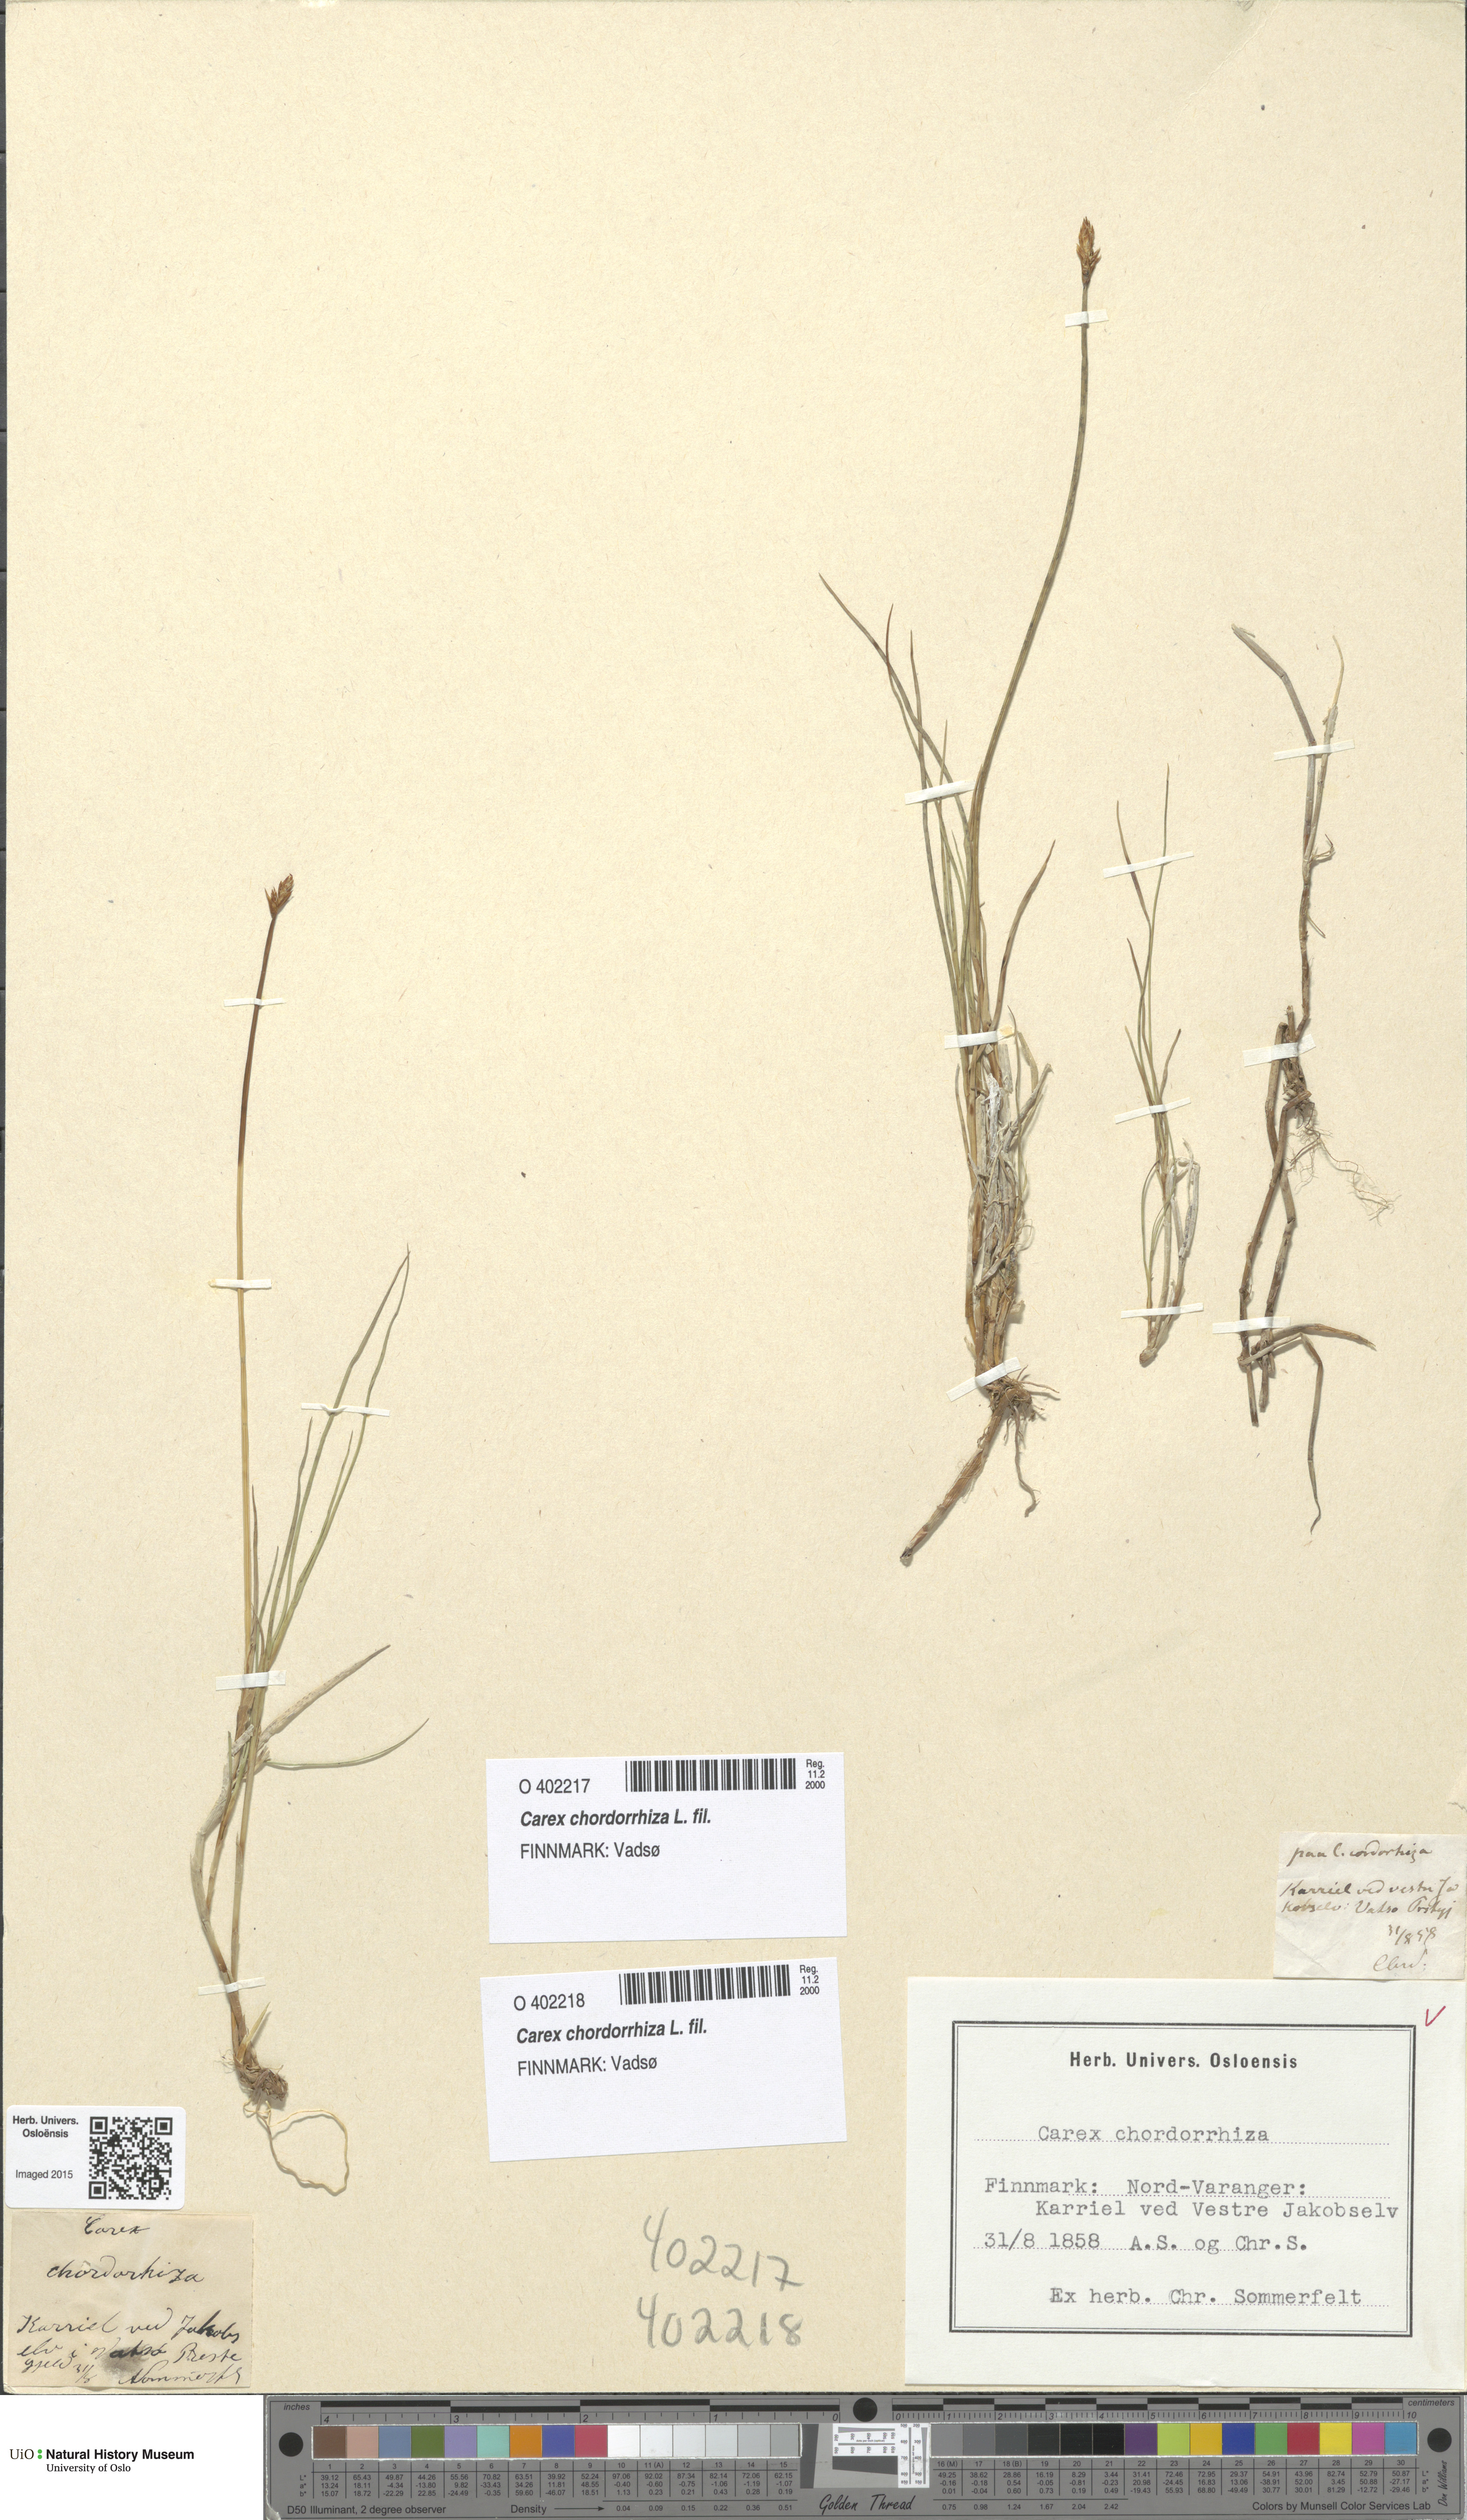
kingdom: Plantae
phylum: Tracheophyta
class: Liliopsida
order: Poales
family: Cyperaceae
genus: Carex
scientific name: Carex chordorrhiza
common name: String sedge
